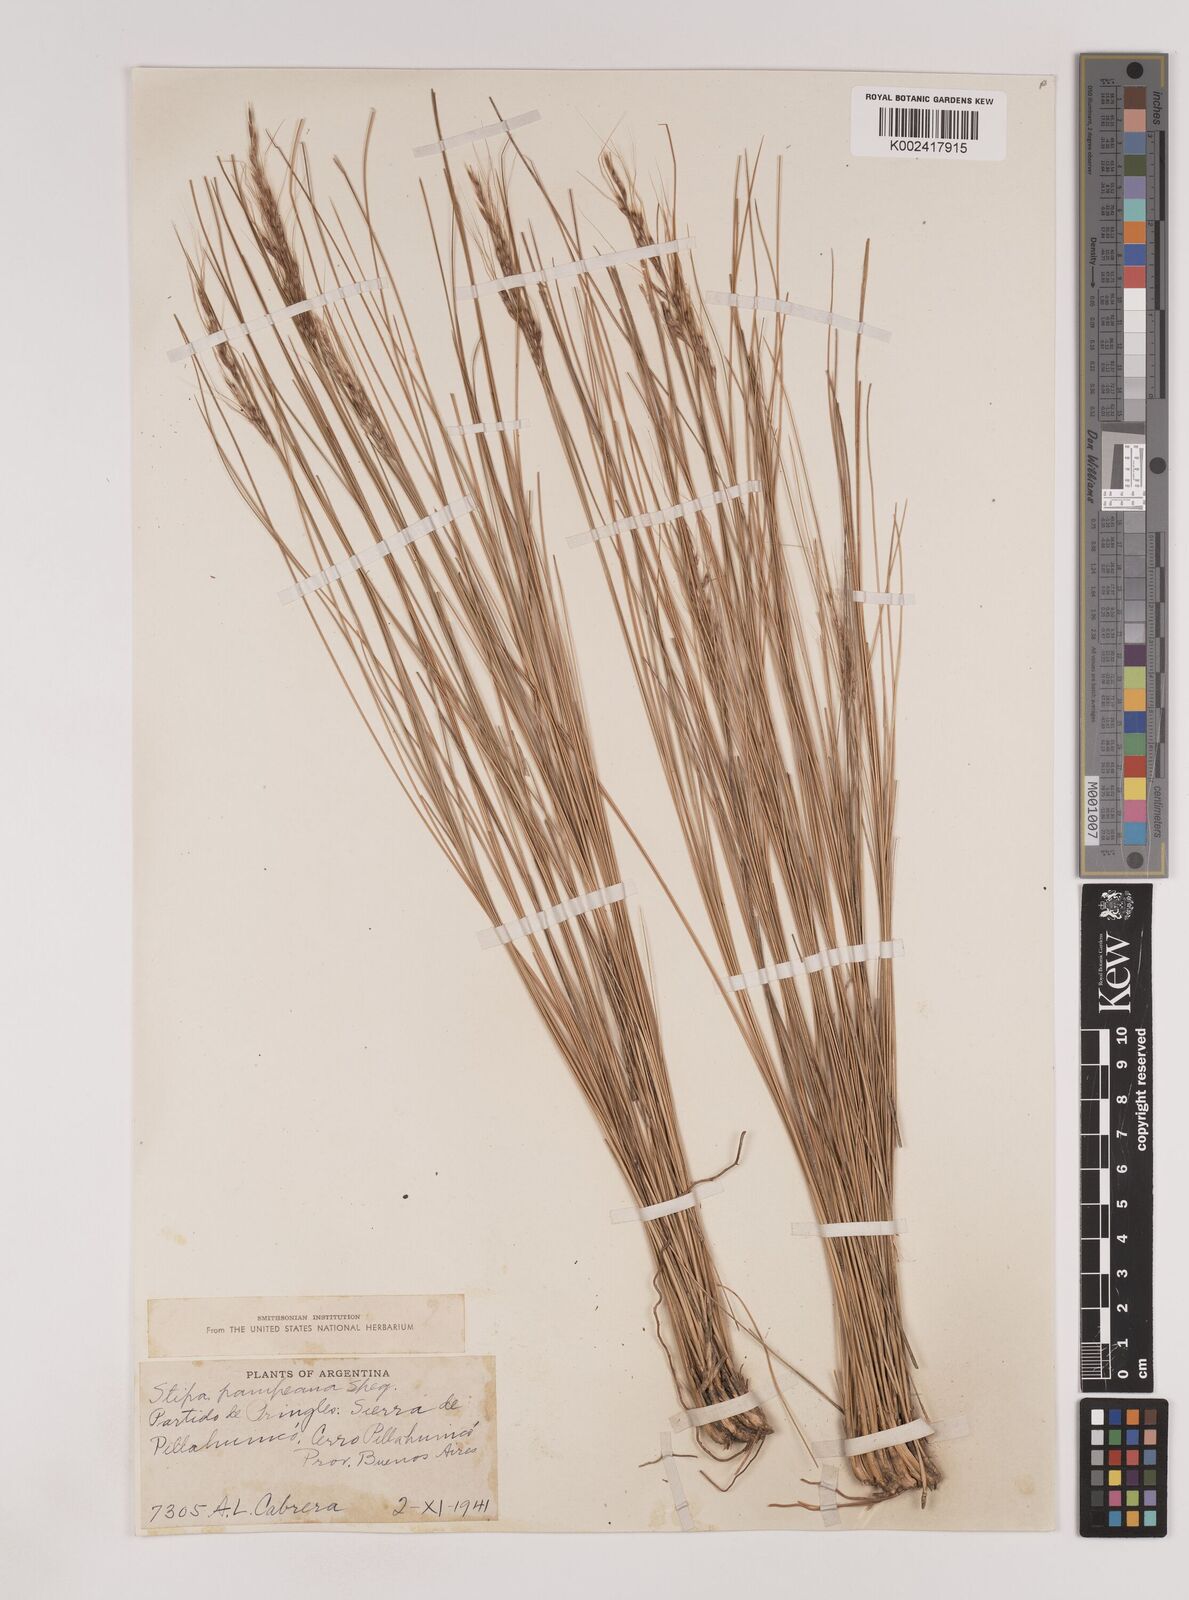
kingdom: Plantae
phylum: Tracheophyta
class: Liliopsida
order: Poales
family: Poaceae
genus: Nassella
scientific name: Nassella pampeana
